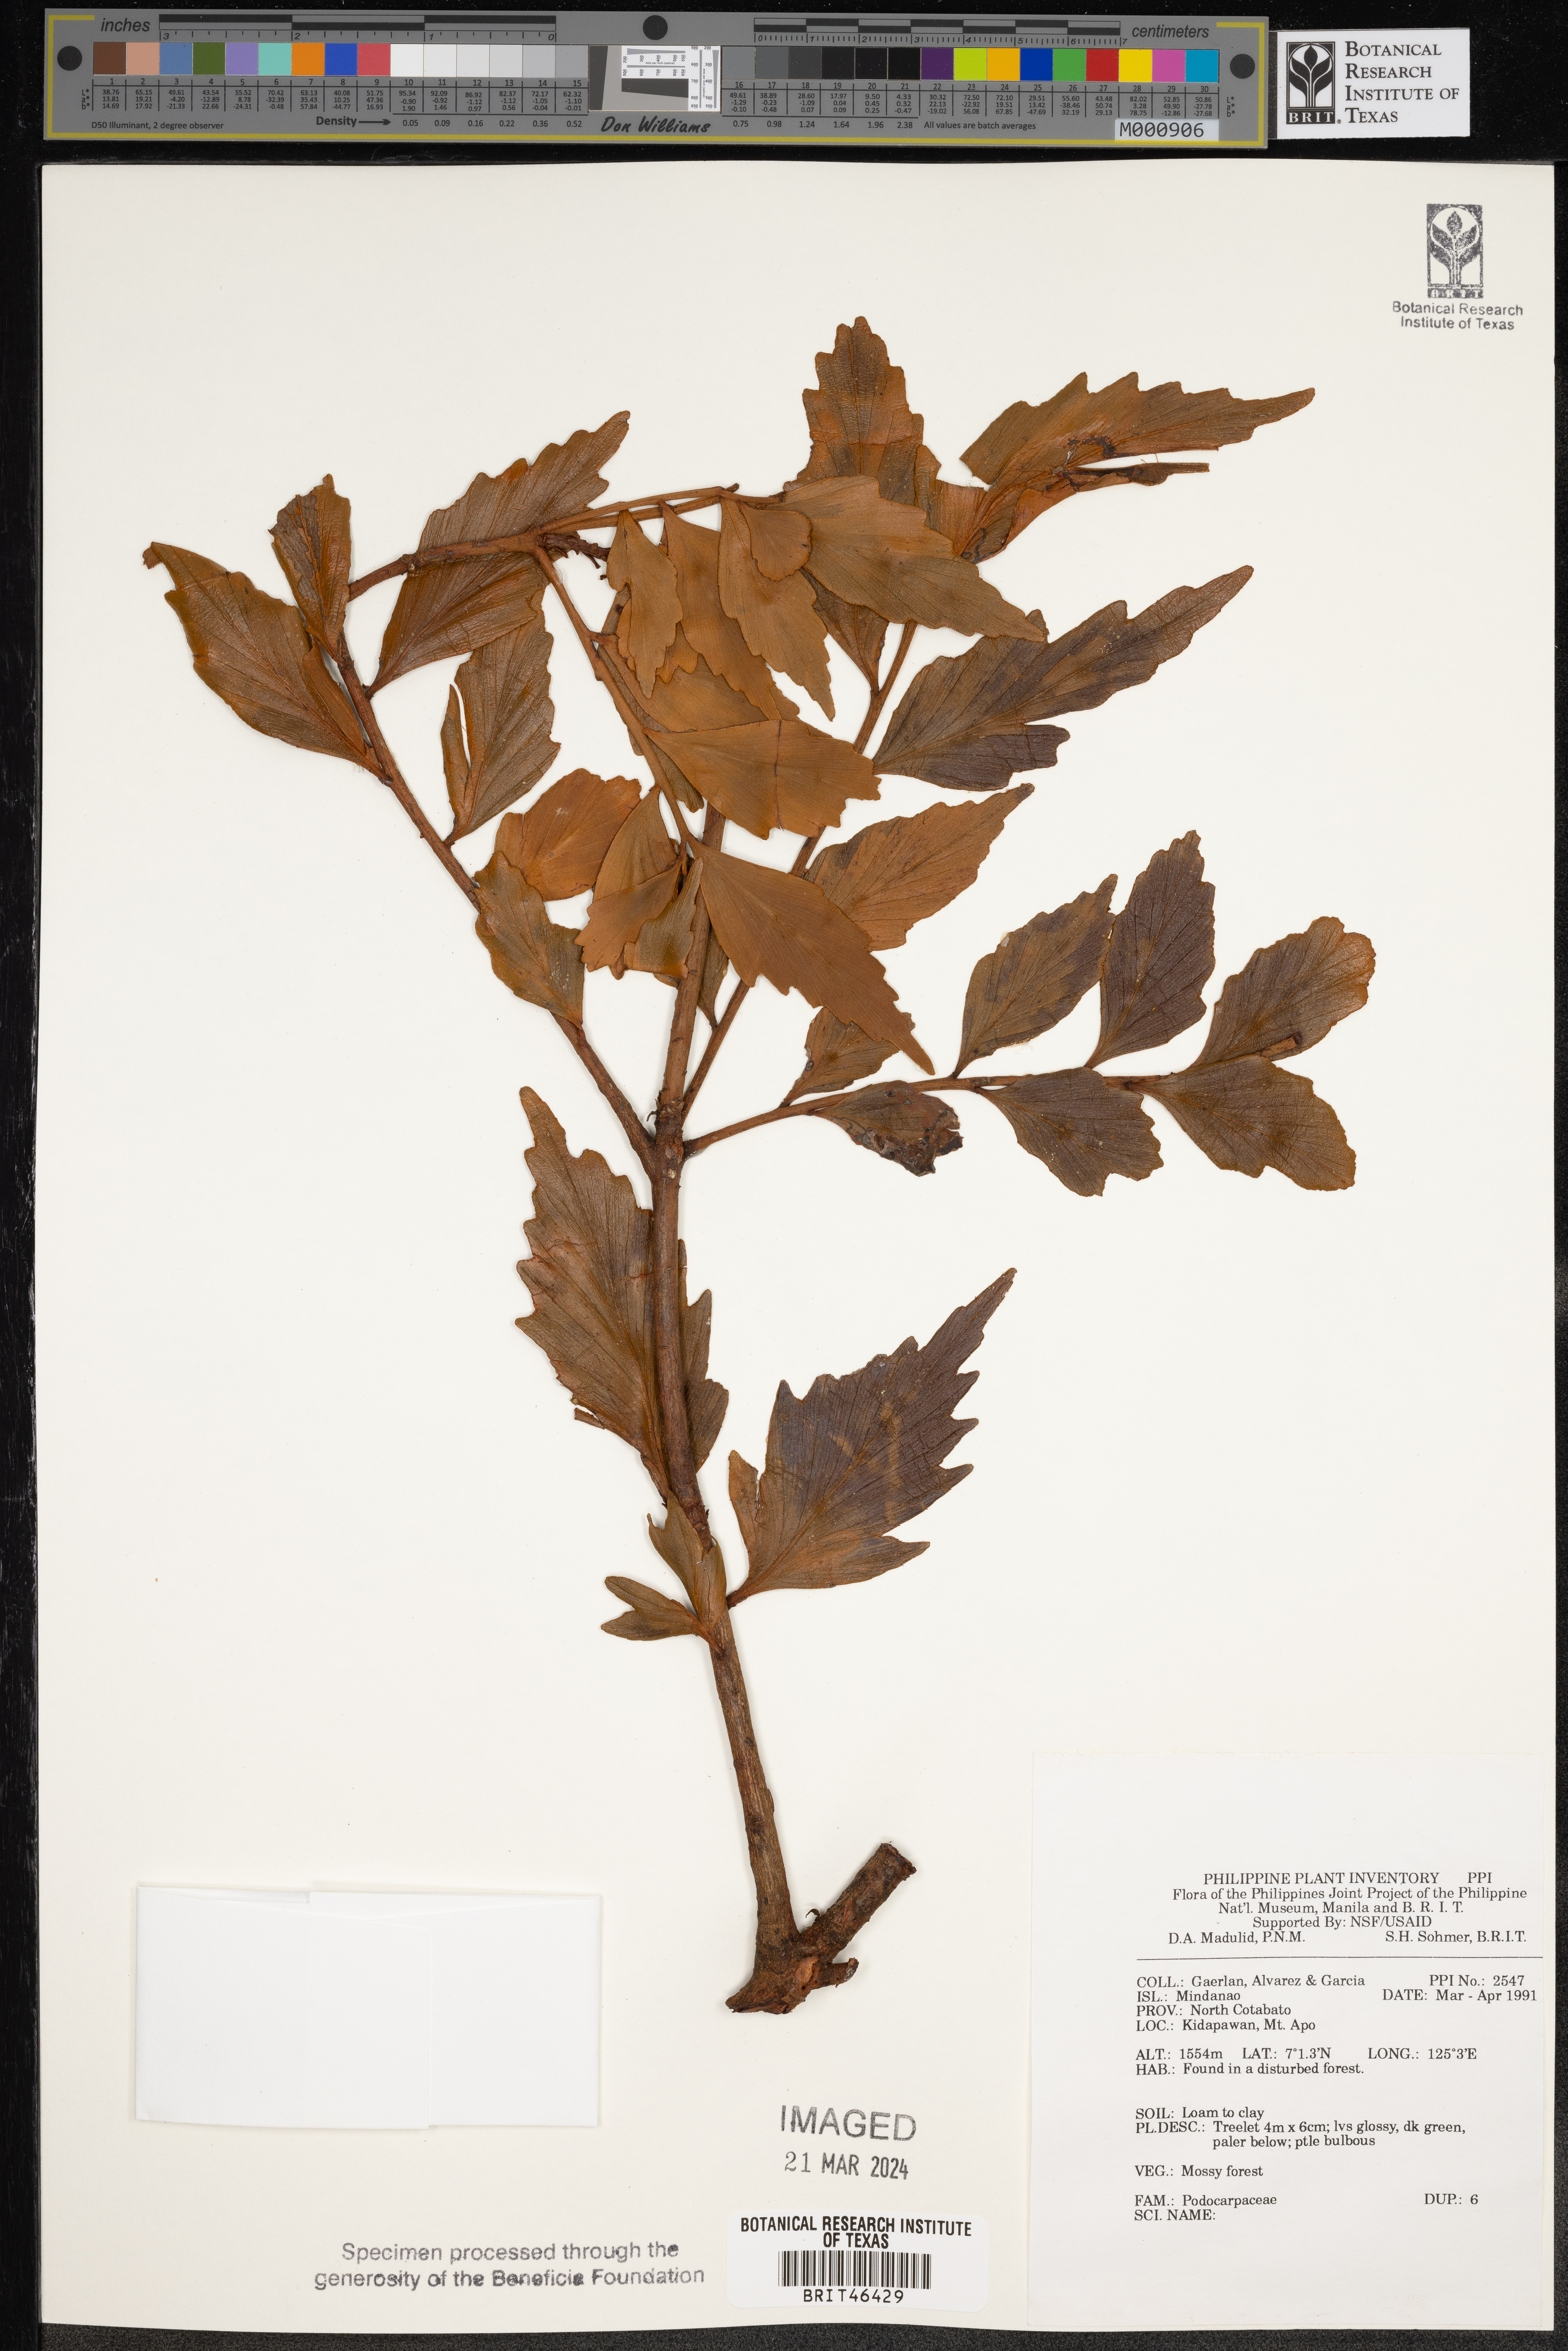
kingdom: Plantae
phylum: Tracheophyta
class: Pinopsida
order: Pinales
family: Podocarpaceae
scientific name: Podocarpaceae
